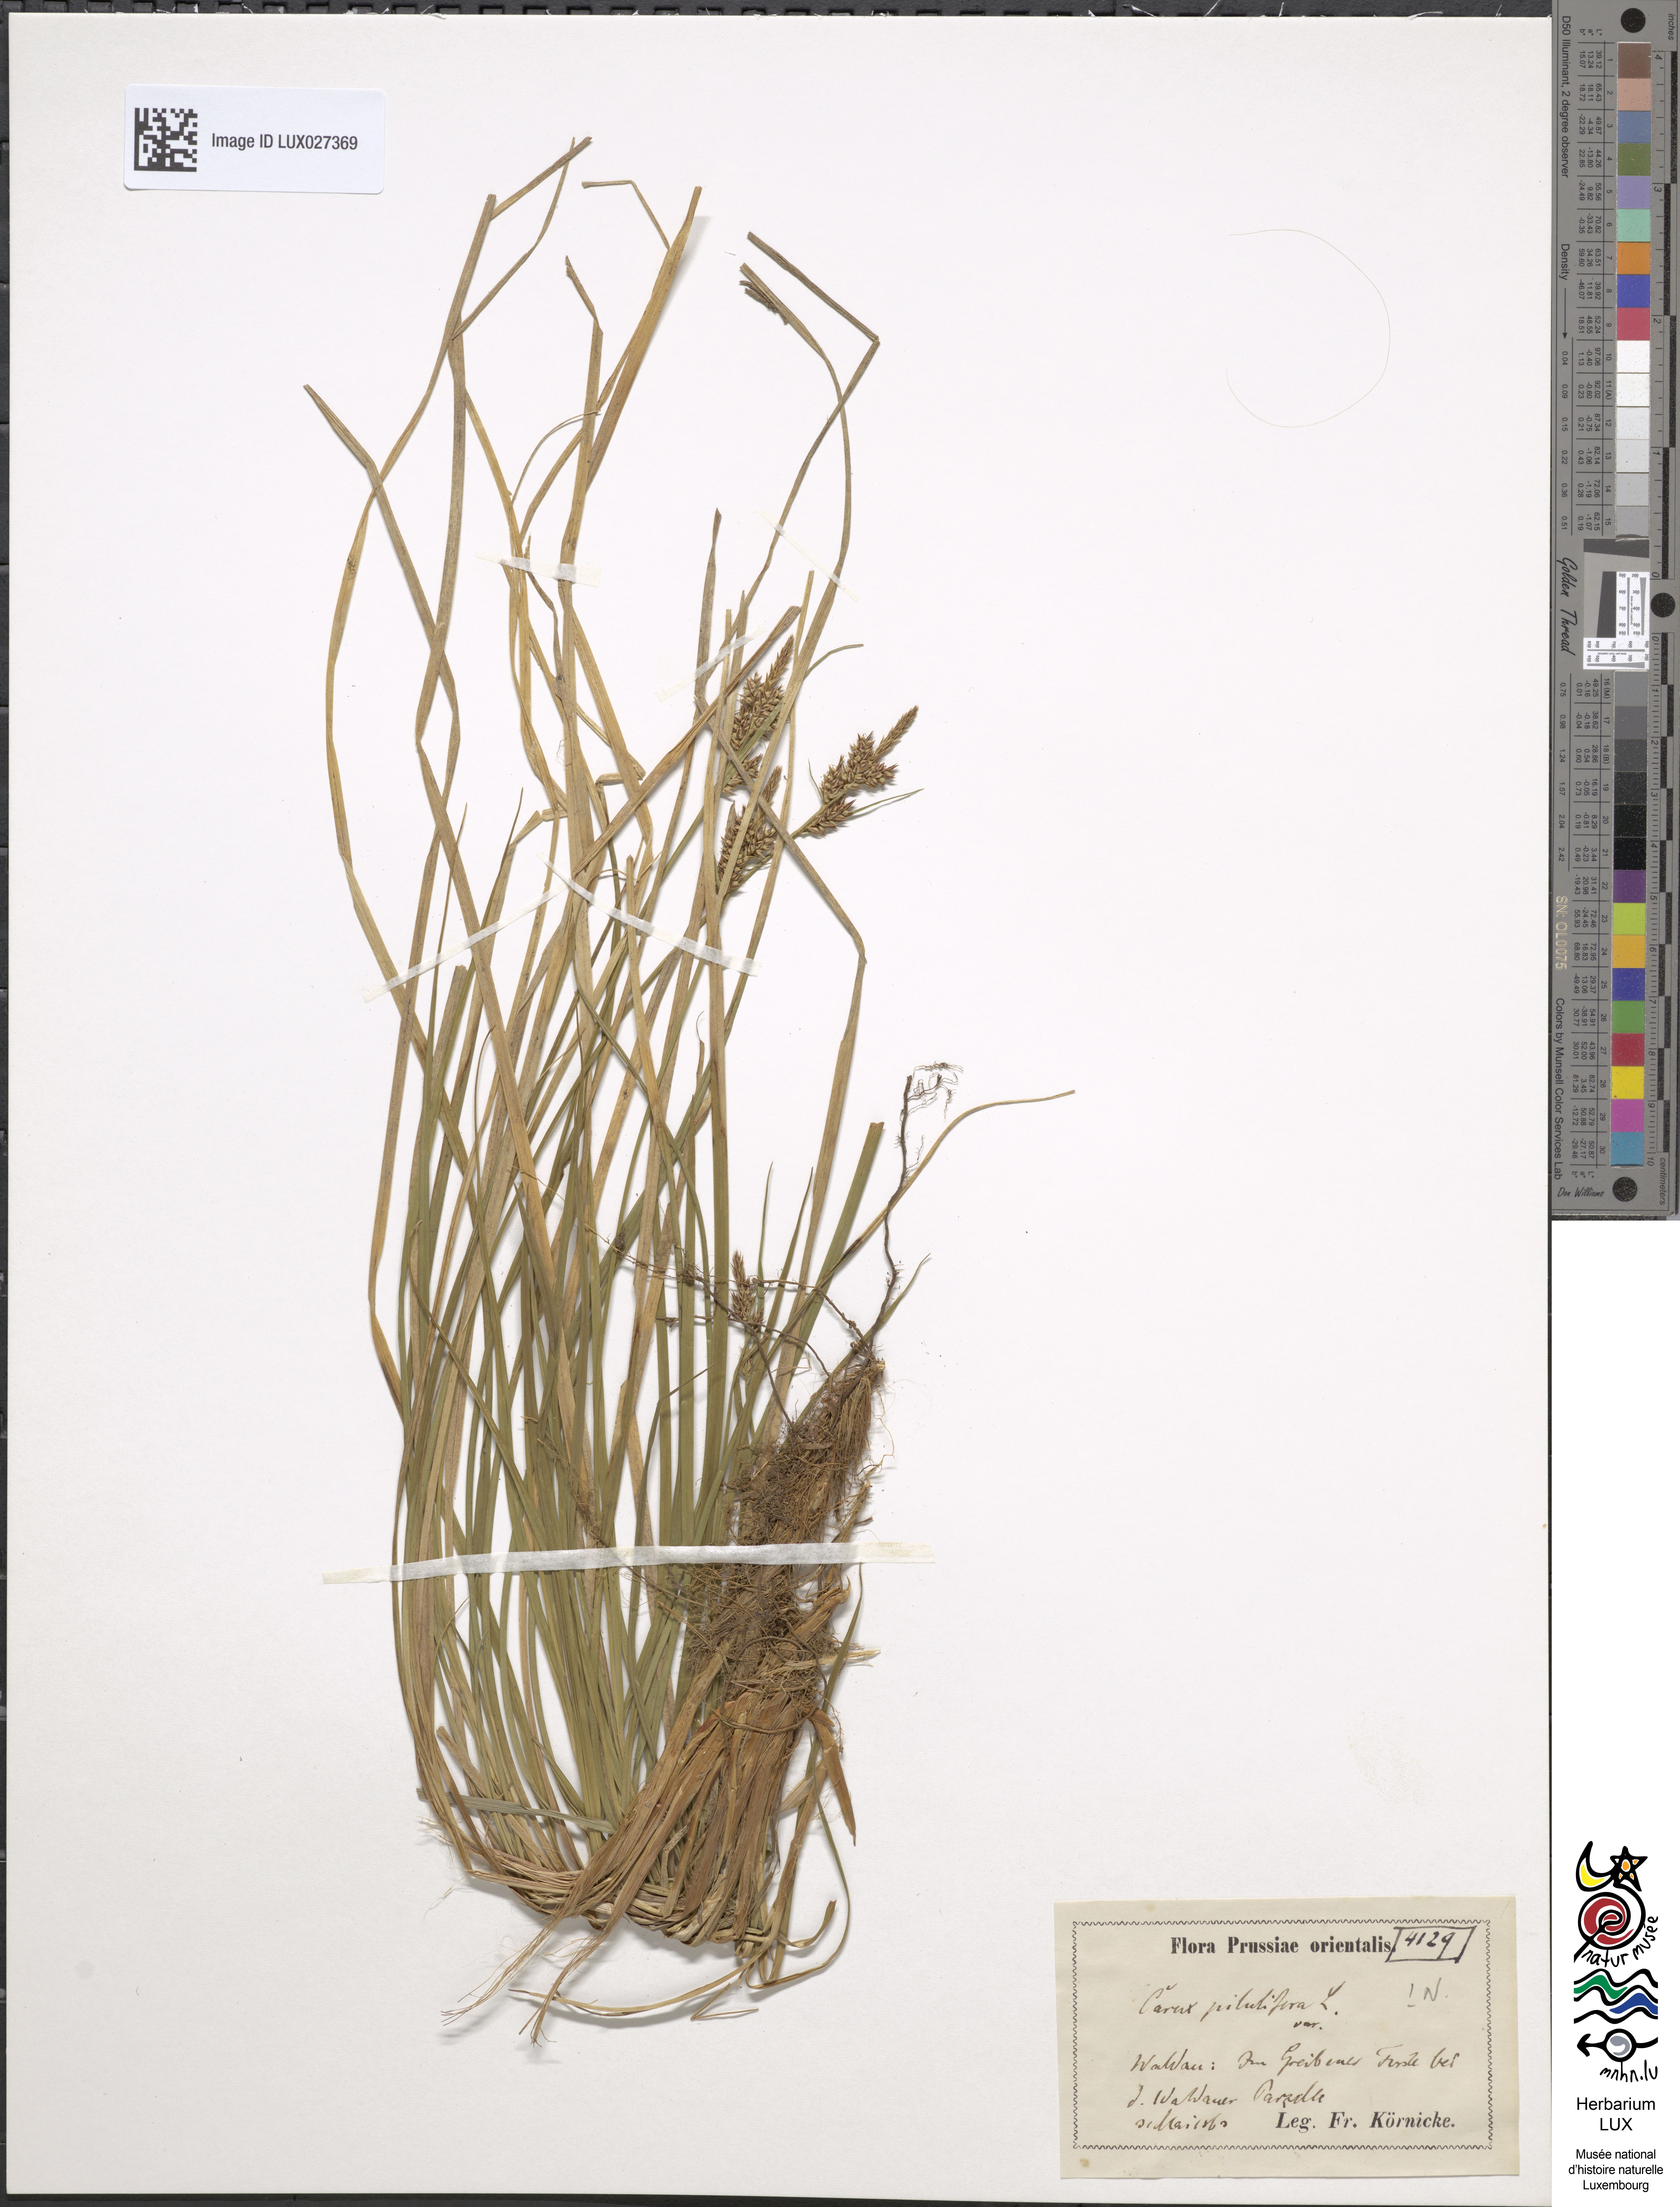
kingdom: Plantae
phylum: Tracheophyta
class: Liliopsida
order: Poales
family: Cyperaceae
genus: Carex
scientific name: Carex pilulifera
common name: Pill sedge
